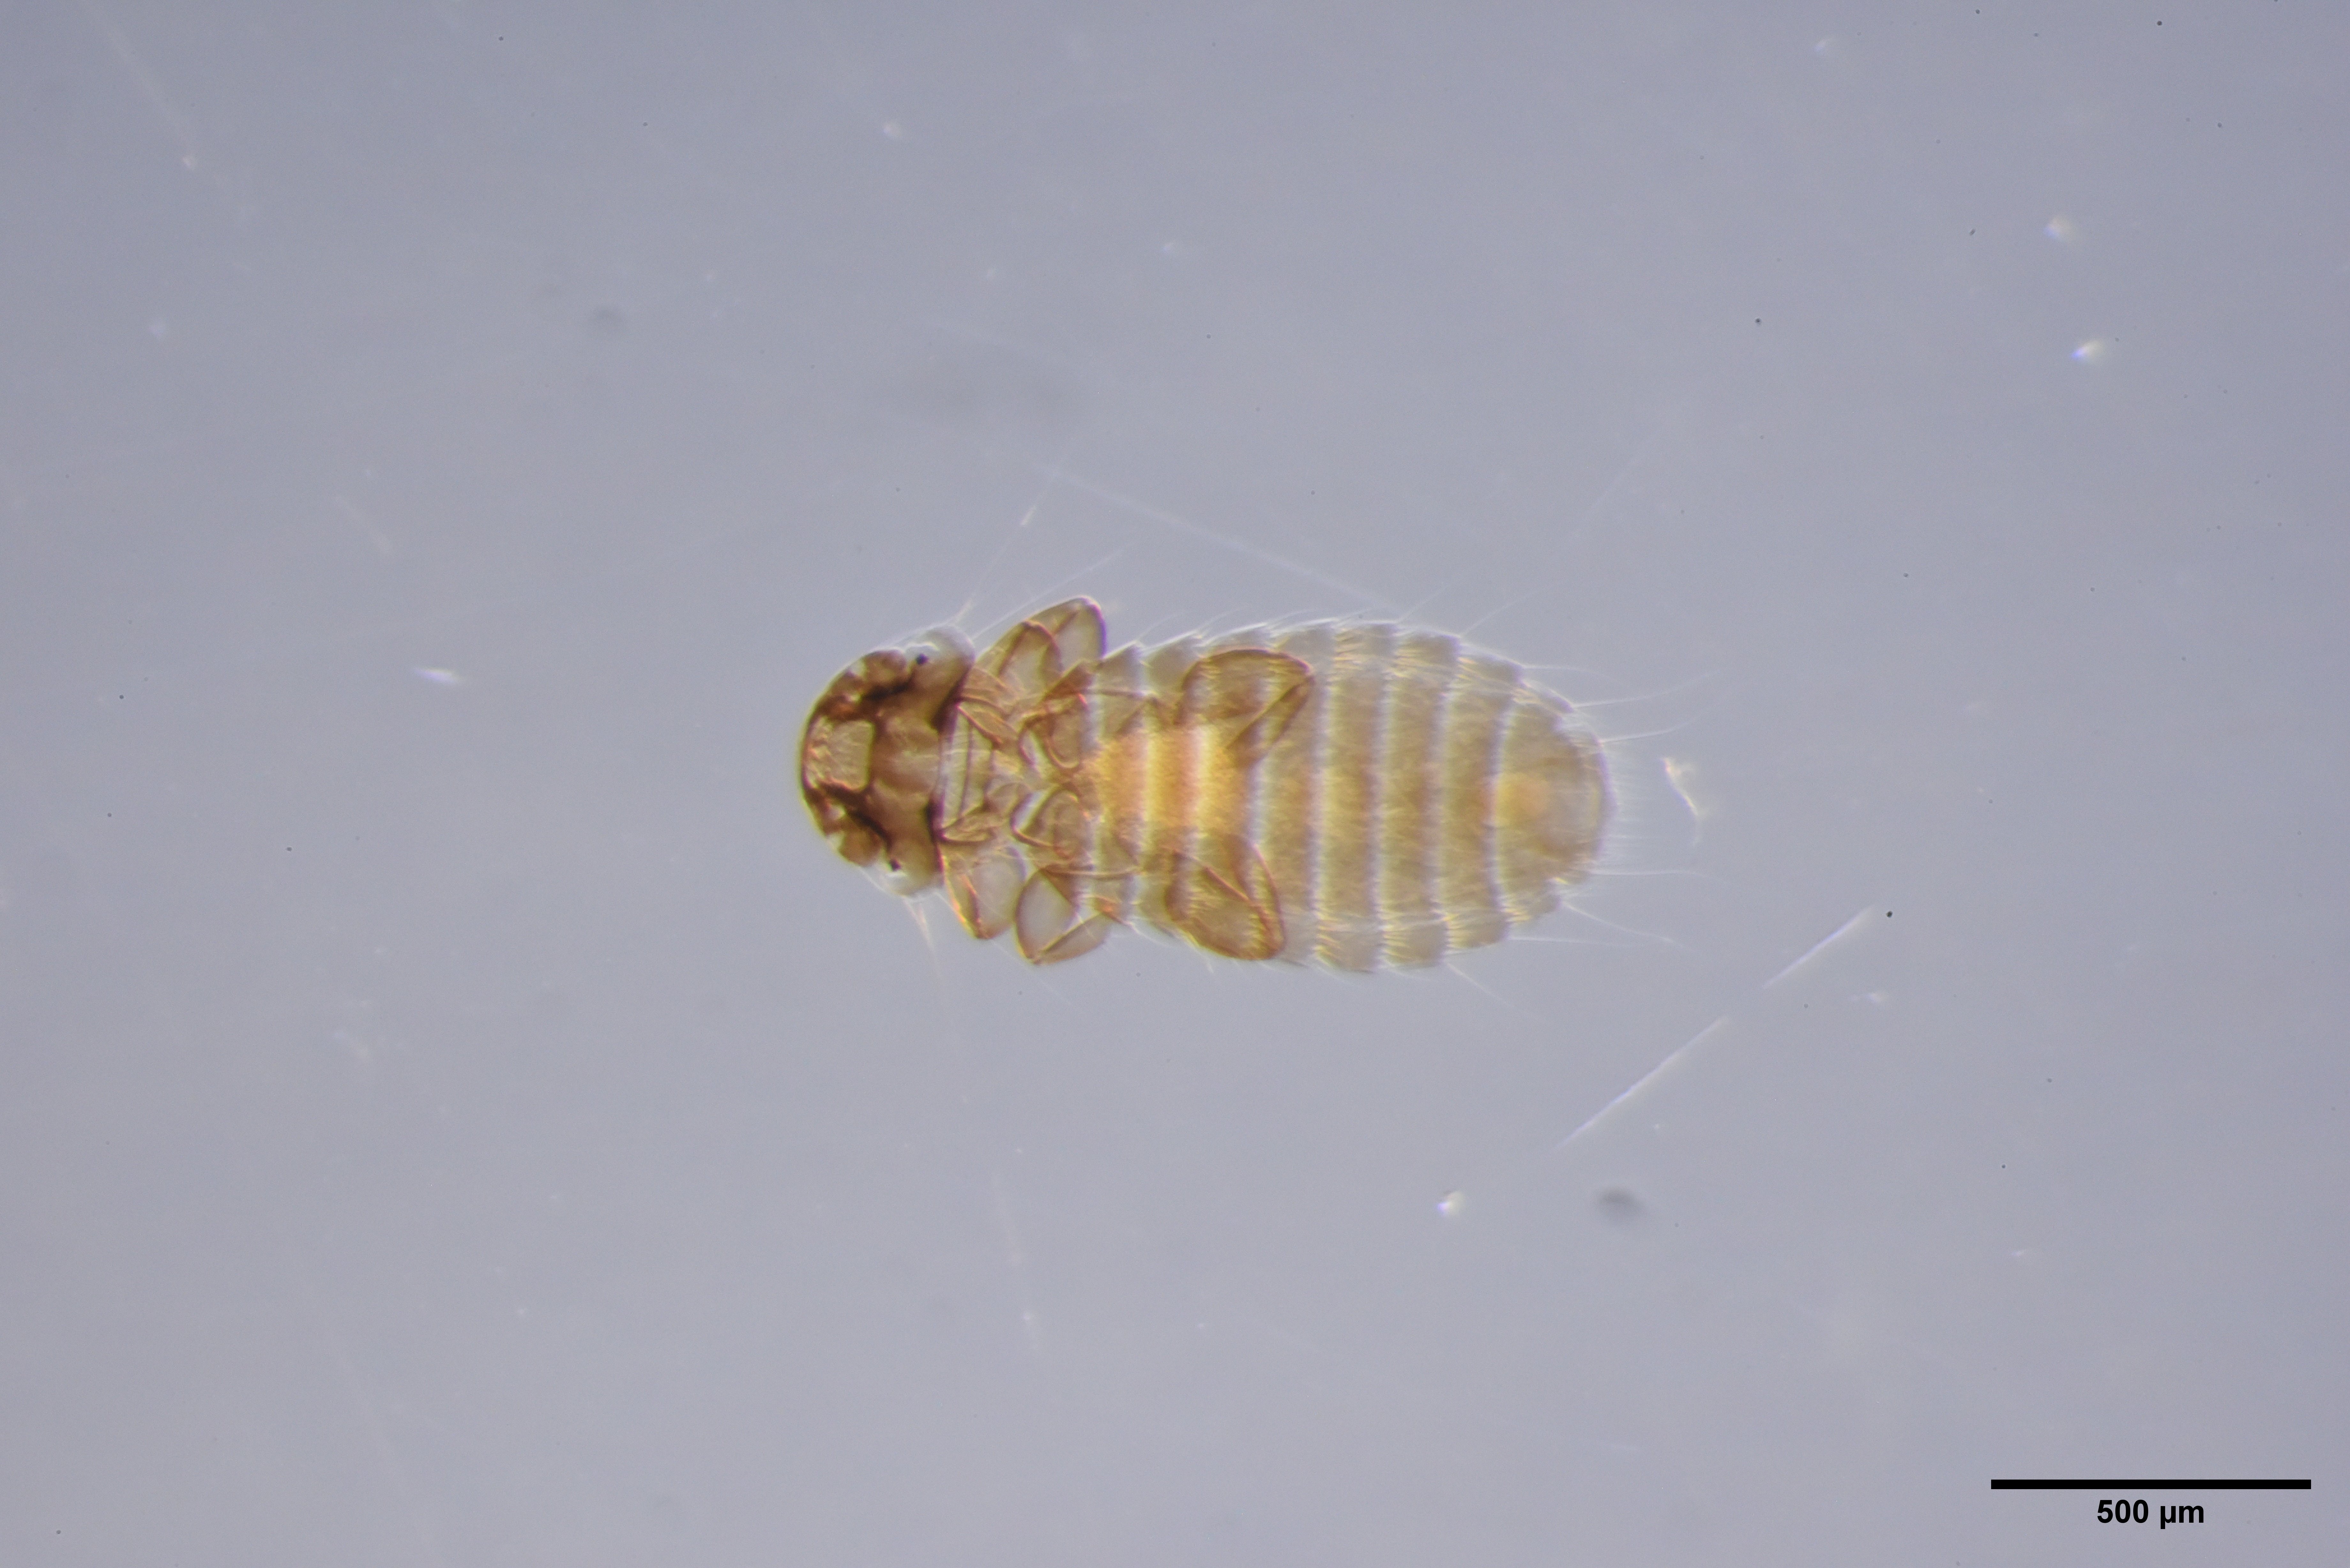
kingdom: Animalia
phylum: Arthropoda
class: Insecta
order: Psocodea
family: Menoponidae
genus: Menacanthus
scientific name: Menacanthus agilis
